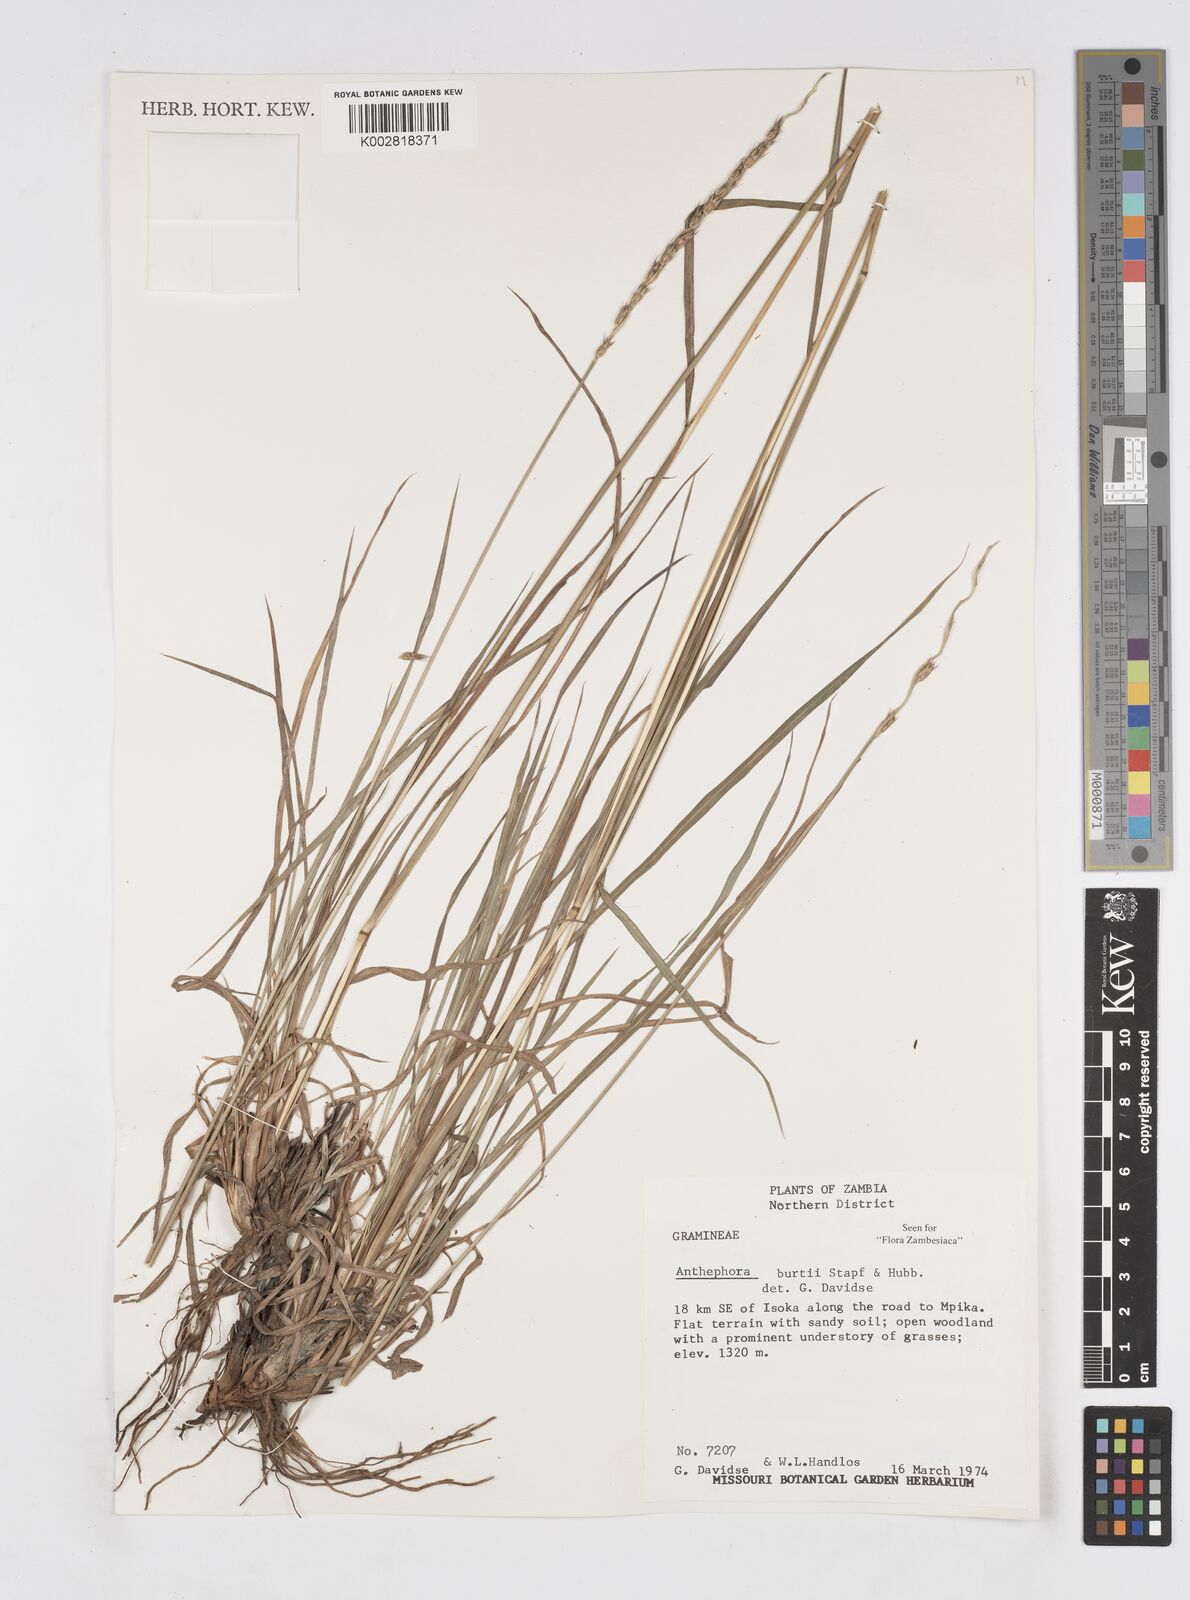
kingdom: Plantae
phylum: Tracheophyta
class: Liliopsida
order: Poales
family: Poaceae
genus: Anthephora
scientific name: Anthephora elongata
